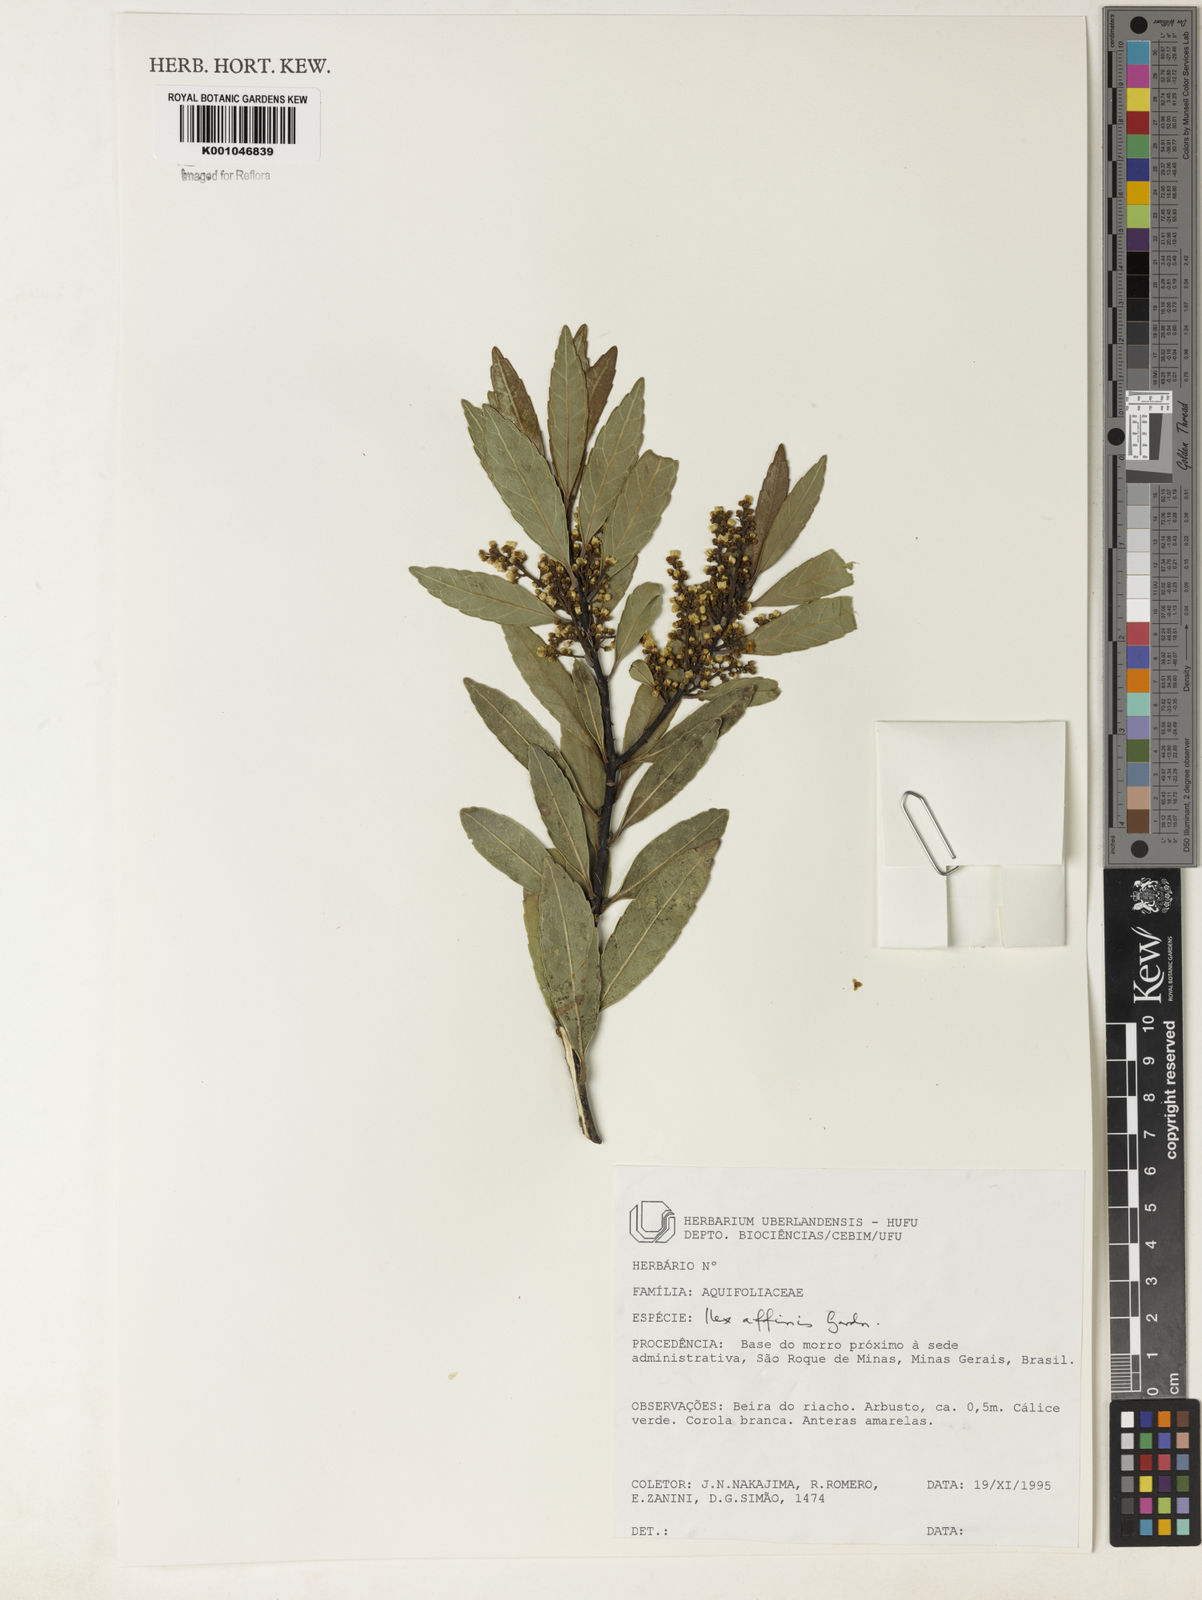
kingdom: Plantae
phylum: Tracheophyta
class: Magnoliopsida
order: Aquifoliales
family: Aquifoliaceae
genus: Ilex
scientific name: Ilex affinis
